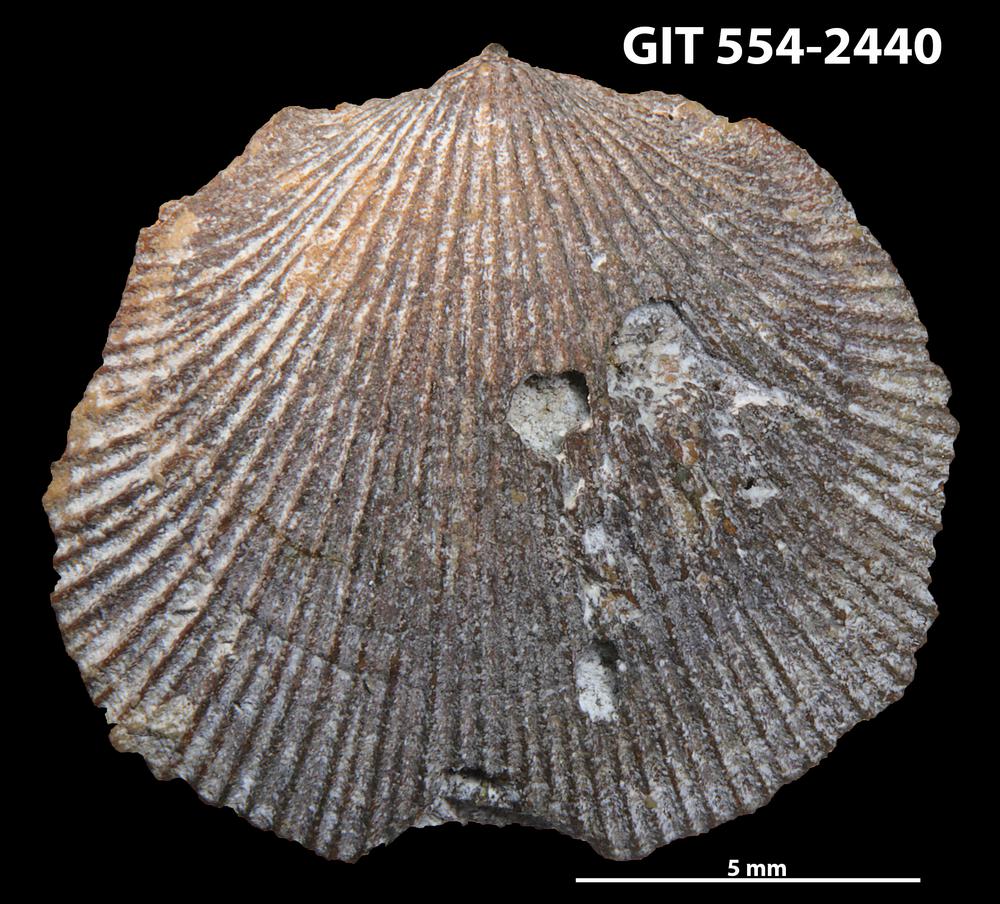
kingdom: Animalia
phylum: Brachiopoda
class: Rhynchonellata
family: Rhipidomellidae
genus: Mendacella
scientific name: Mendacella Rhipidomelloides phaseola
